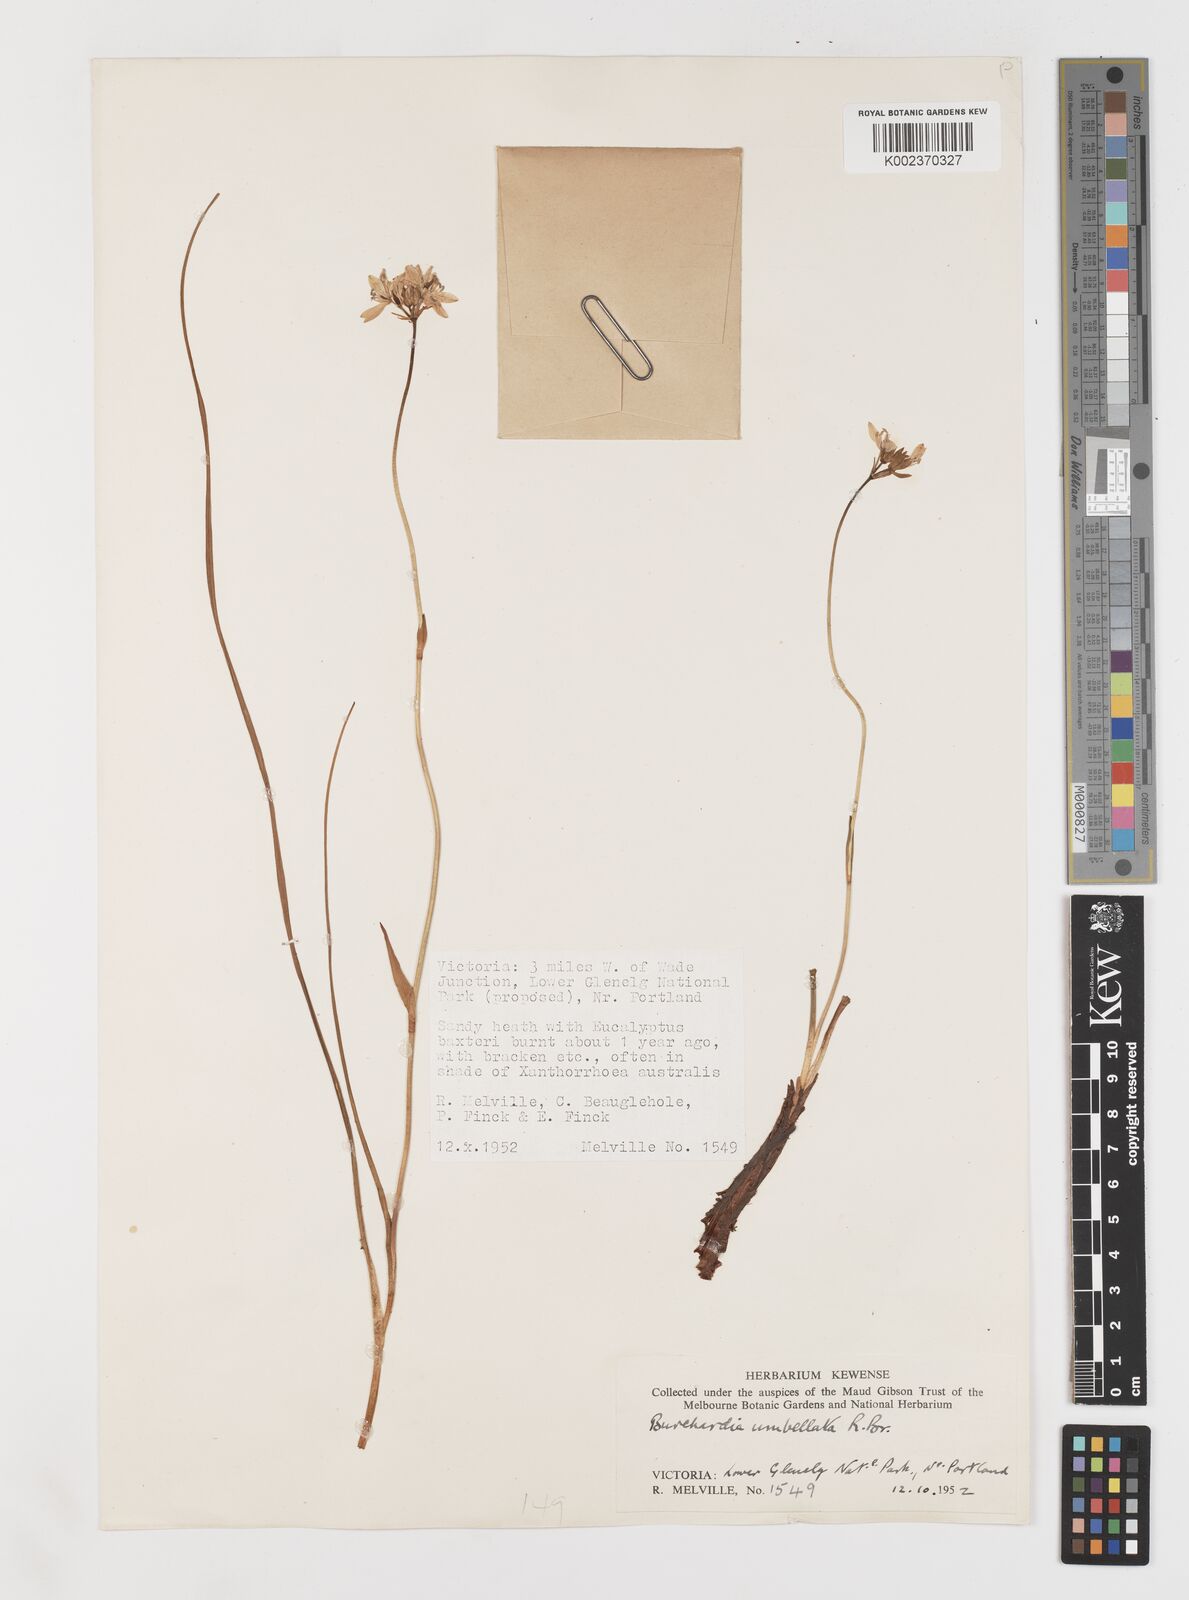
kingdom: Plantae
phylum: Tracheophyta
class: Liliopsida
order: Liliales
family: Colchicaceae
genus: Burchardia
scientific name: Burchardia umbellata
